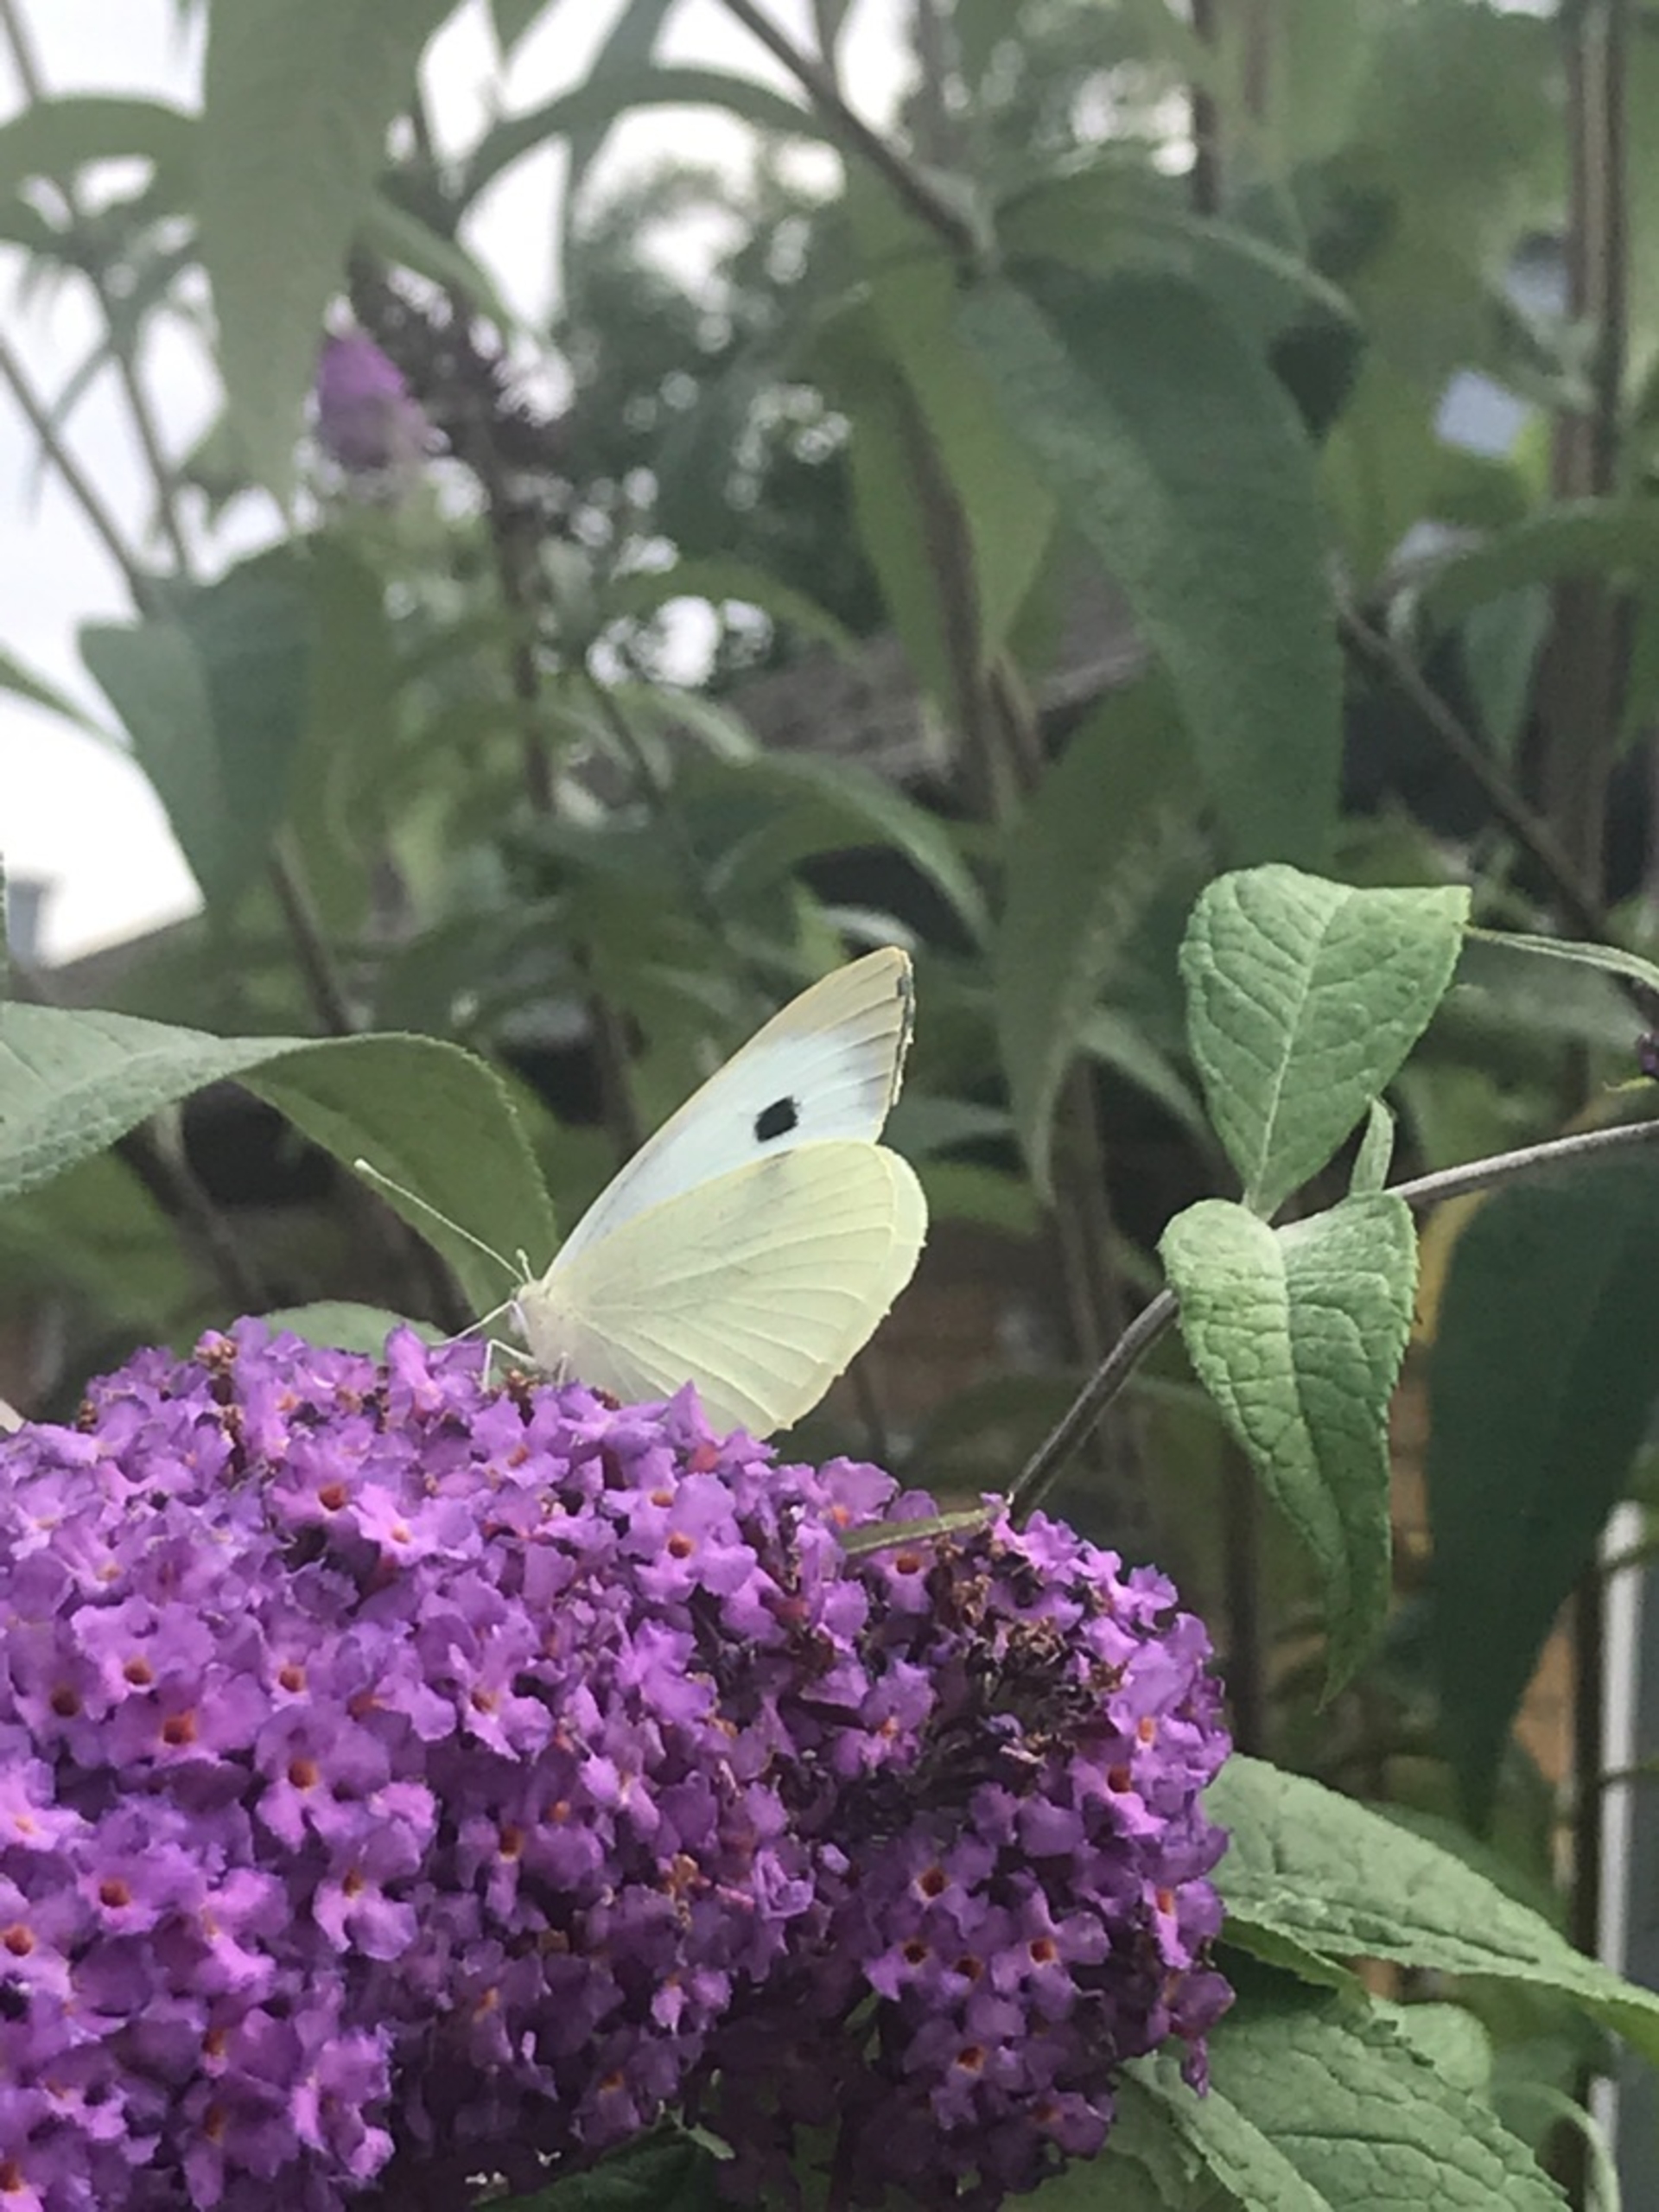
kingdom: Animalia
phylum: Arthropoda
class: Insecta
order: Lepidoptera
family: Pieridae
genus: Pieris
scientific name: Pieris brassicae
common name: Stor kålsommerfugl
